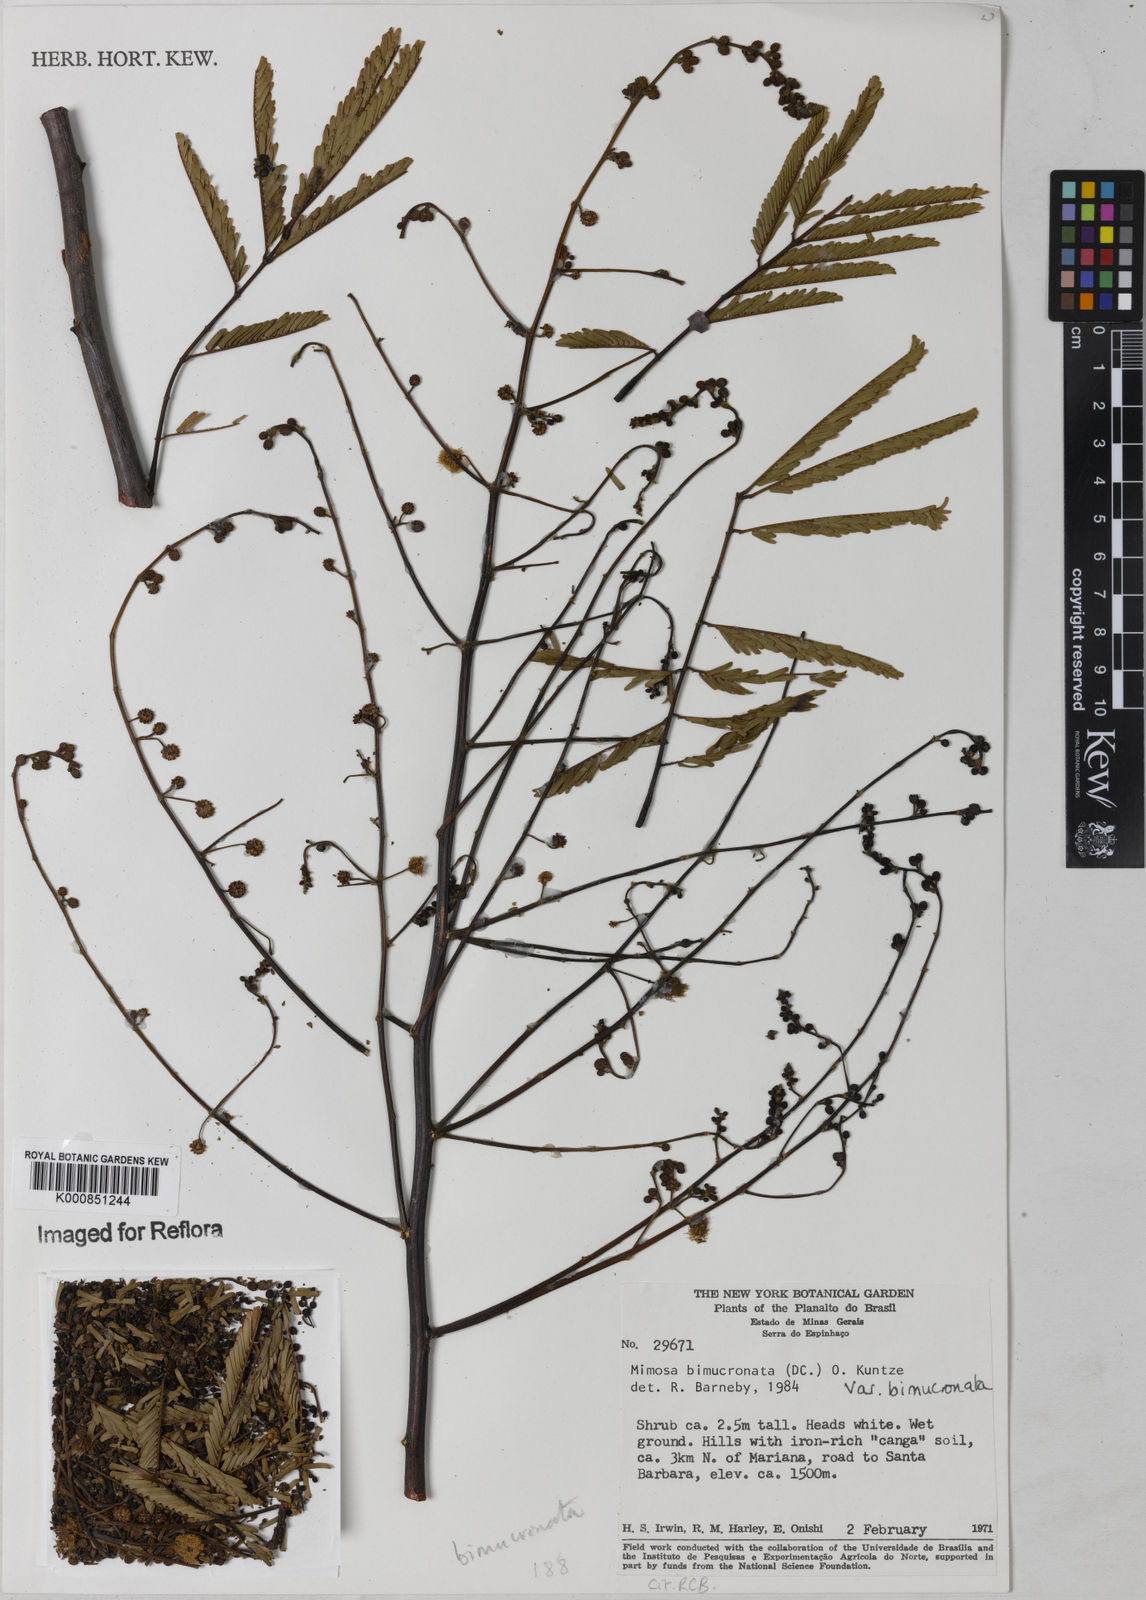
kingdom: Plantae
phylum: Tracheophyta
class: Magnoliopsida
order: Fabales
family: Fabaceae
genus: Mimosa
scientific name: Mimosa bimucronata
